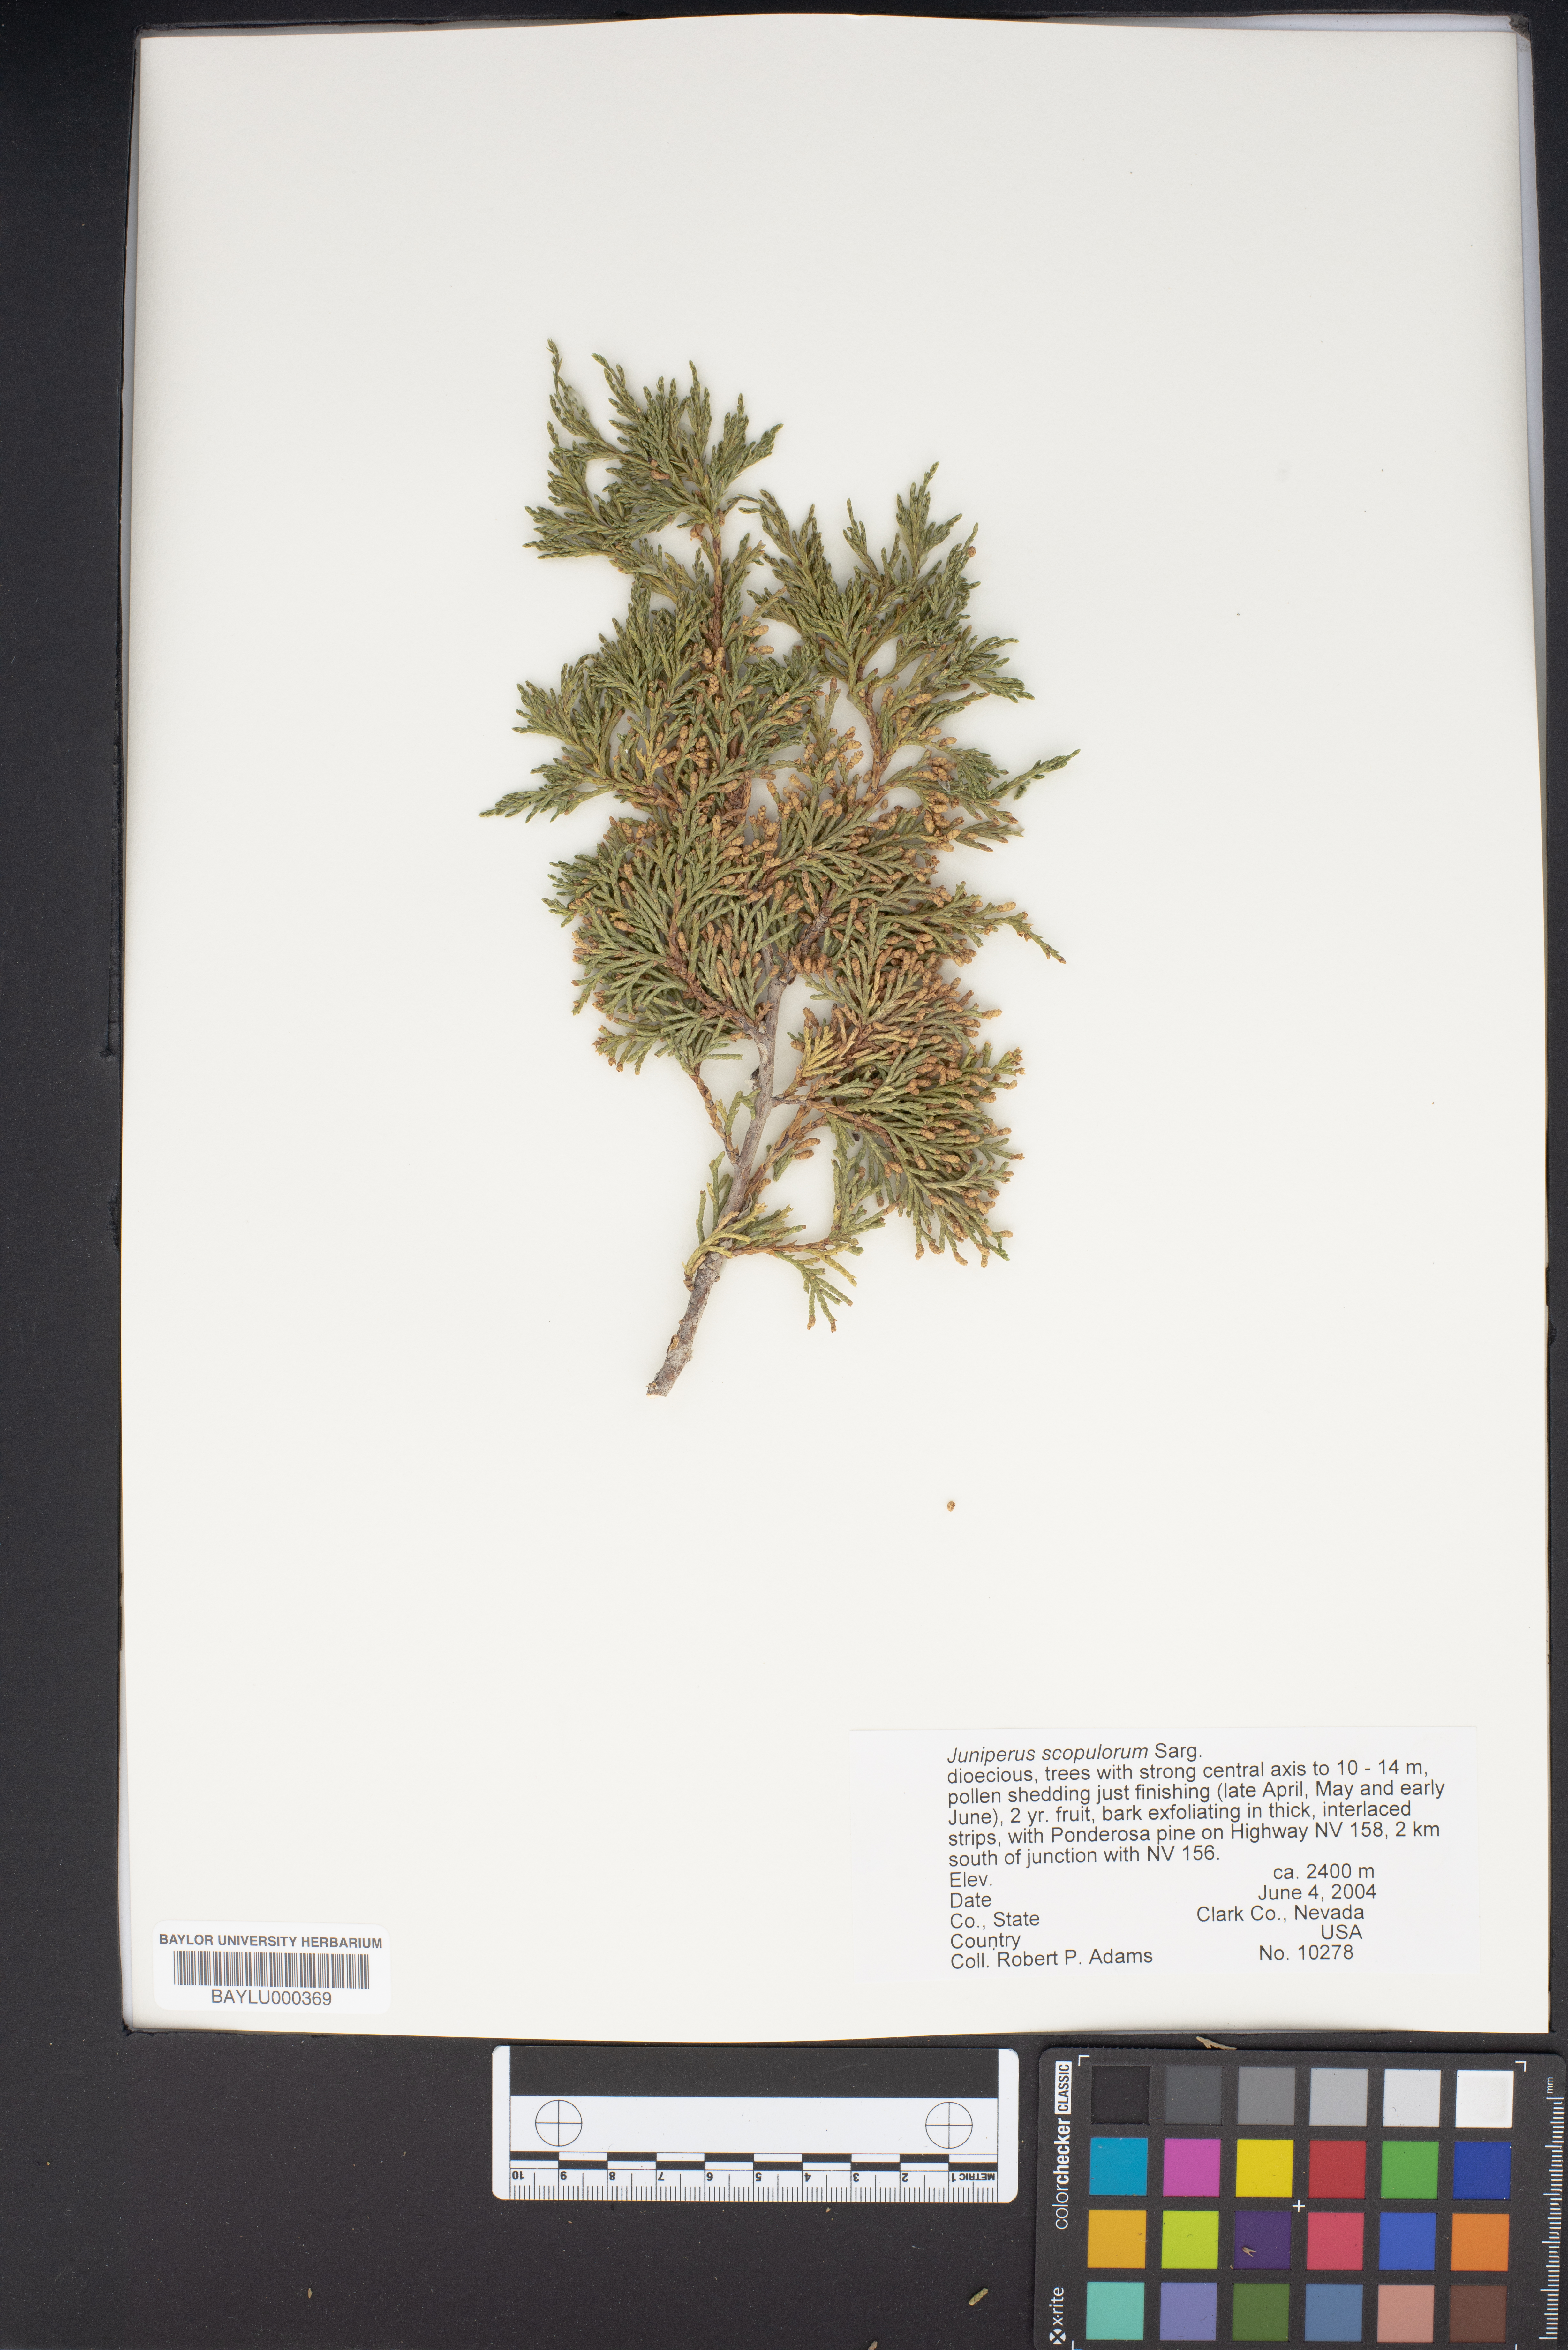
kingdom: Plantae
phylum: Tracheophyta
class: Pinopsida
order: Pinales
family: Cupressaceae
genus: Juniperus
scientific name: Juniperus scopulorum
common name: Rocky mountain juniper
